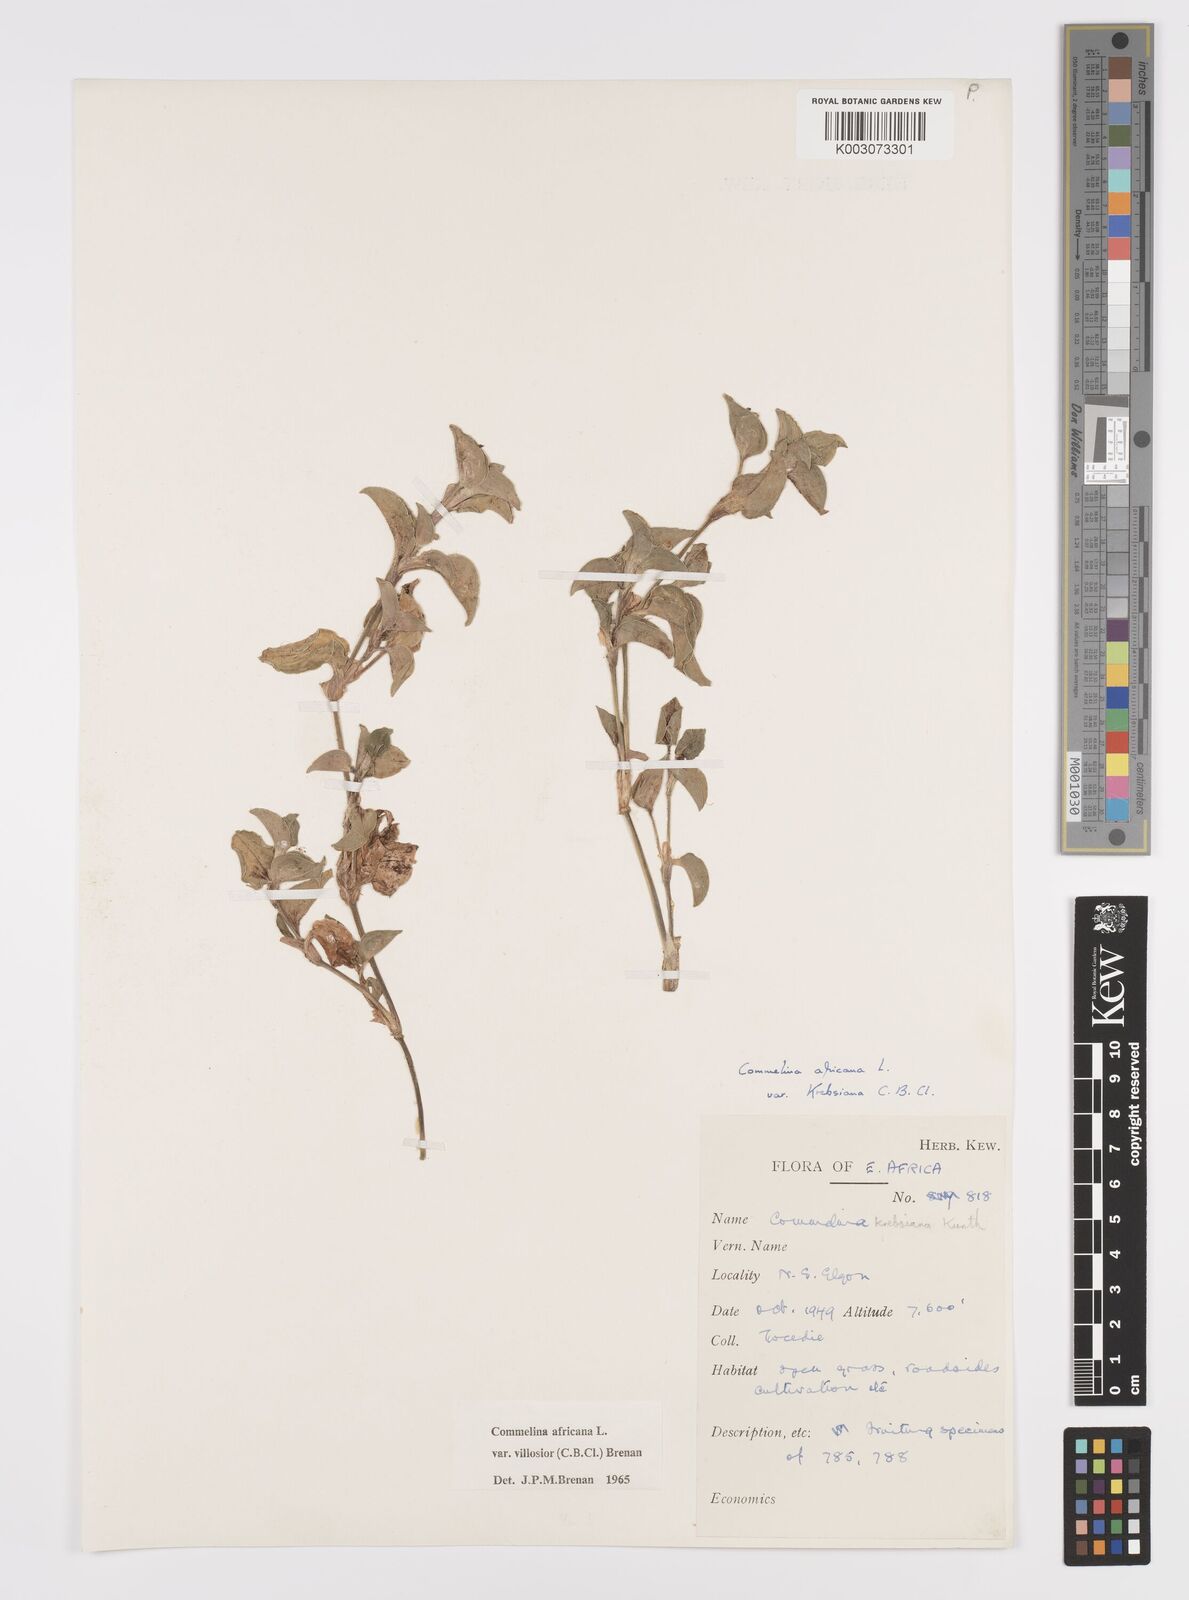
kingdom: Plantae
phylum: Tracheophyta
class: Liliopsida
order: Commelinales
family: Commelinaceae
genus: Commelina
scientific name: Commelina africana
